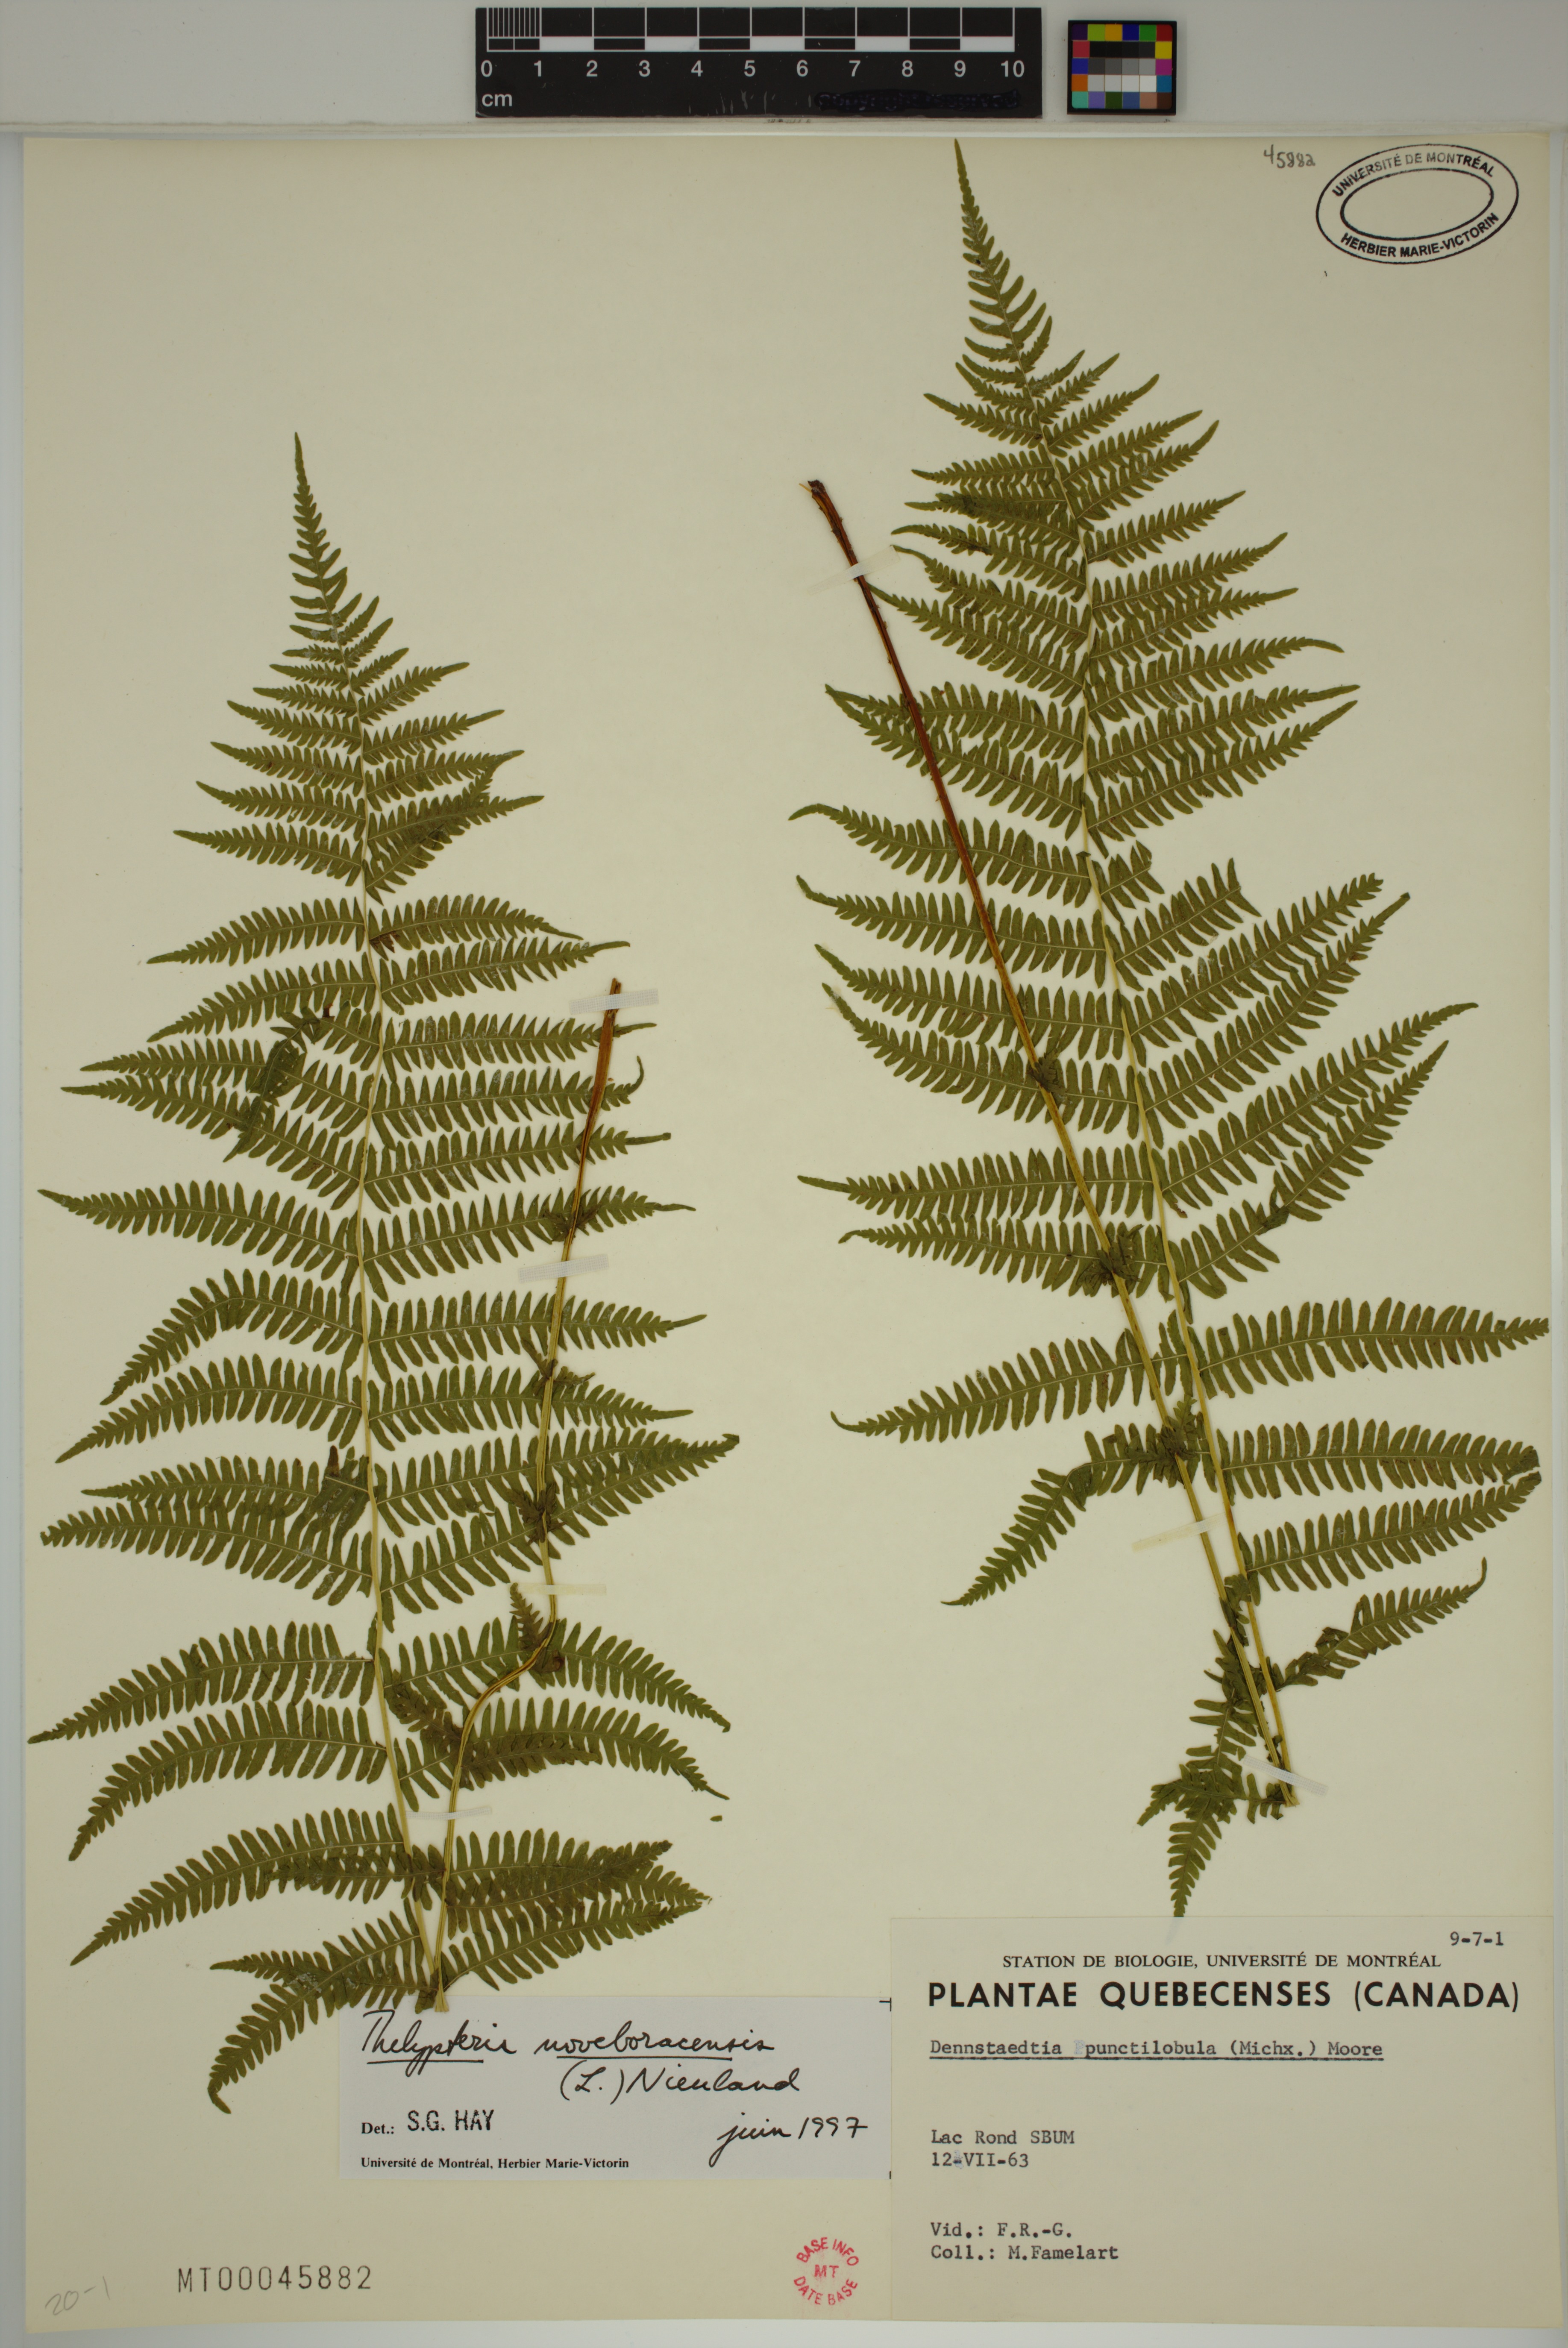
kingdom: Plantae
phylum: Tracheophyta
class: Polypodiopsida
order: Polypodiales
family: Thelypteridaceae
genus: Amauropelta
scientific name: Amauropelta noveboracensis
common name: New york fern
